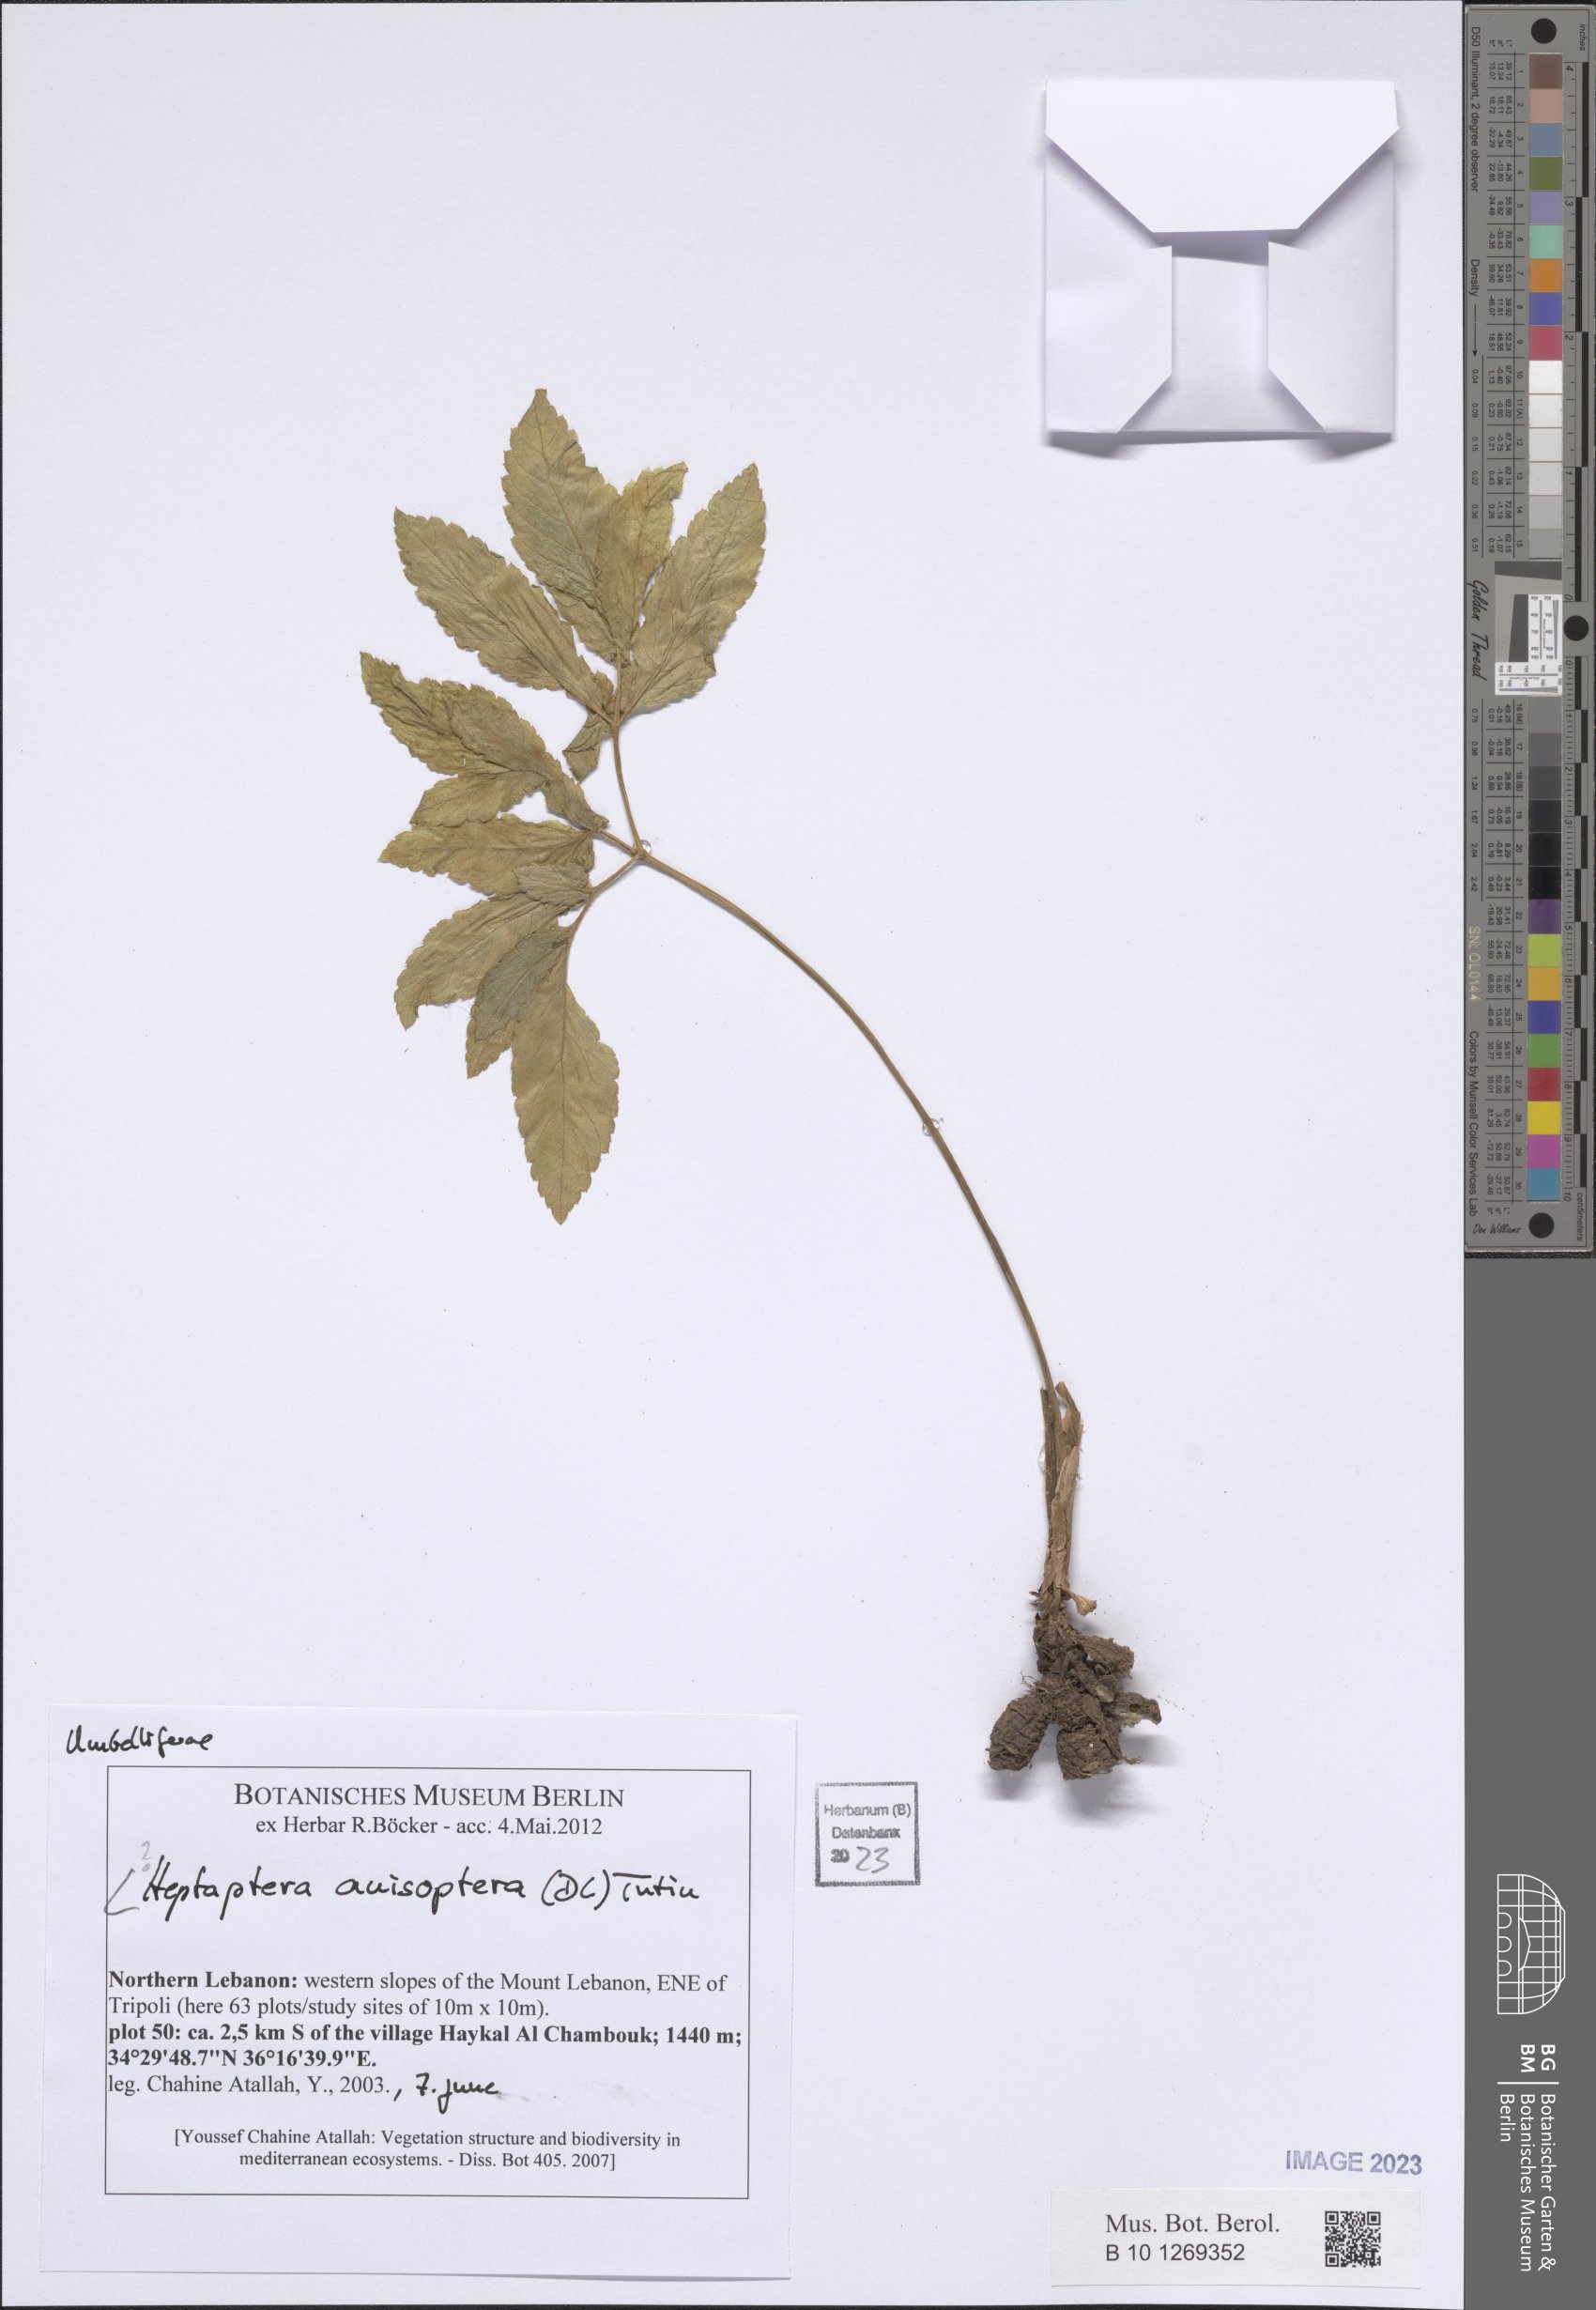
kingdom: Plantae
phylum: Tracheophyta
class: Magnoliopsida
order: Apiales
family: Apiaceae
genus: Heptaptera
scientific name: Heptaptera anisoptera
